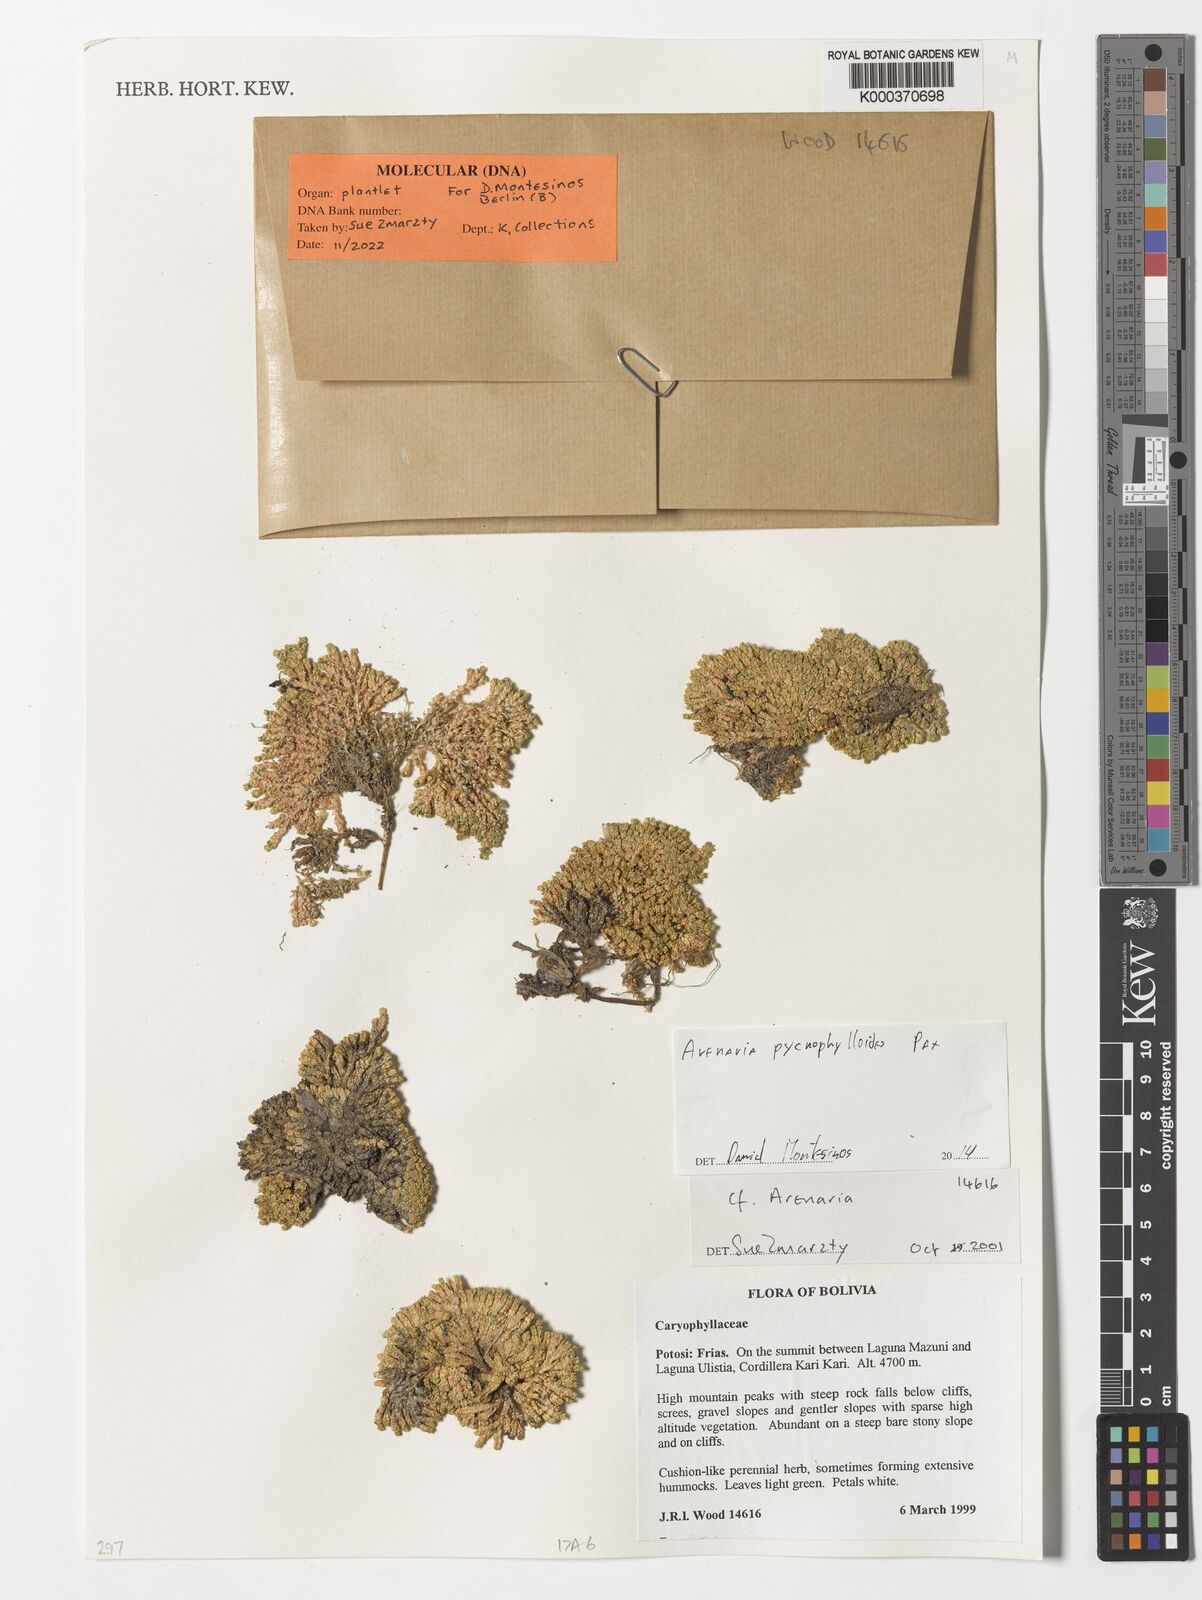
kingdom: Plantae
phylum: Tracheophyta
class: Magnoliopsida
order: Caryophyllales
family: Caryophyllaceae
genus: Arenaria
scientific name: Arenaria pycnophylloides
